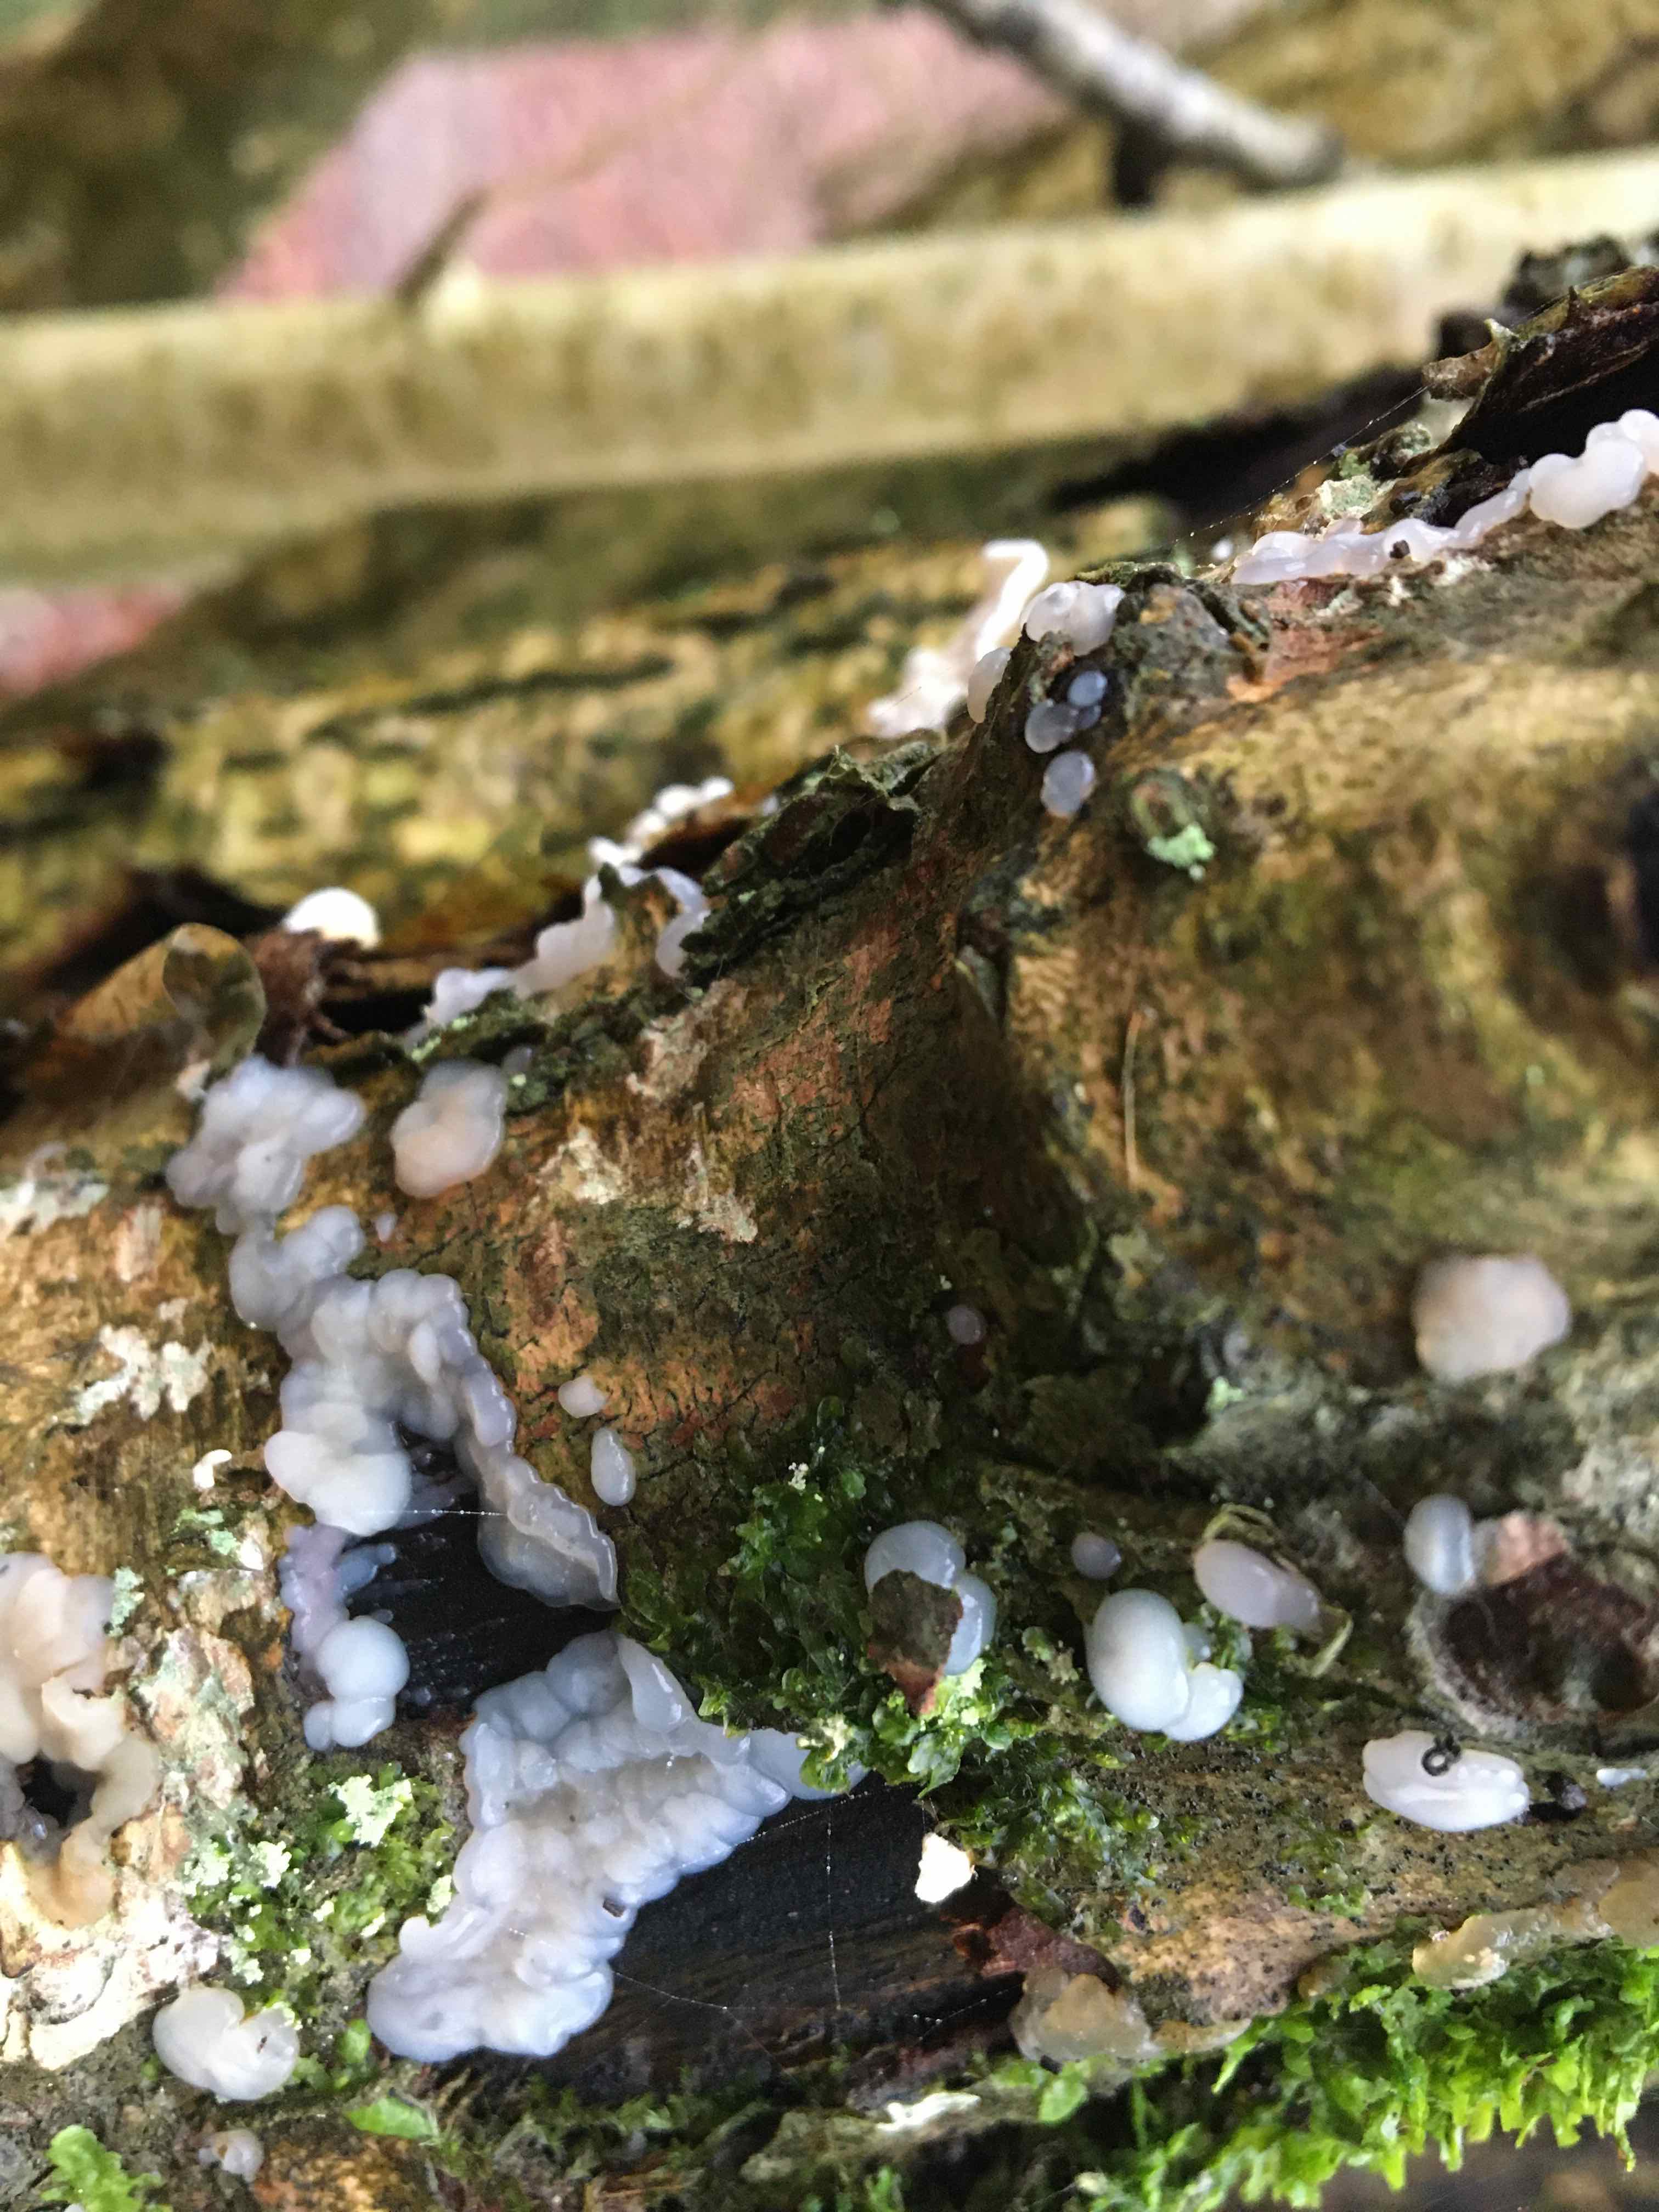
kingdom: Fungi
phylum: Basidiomycota
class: Agaricomycetes
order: Auriculariales
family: Auriculariaceae
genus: Exidia
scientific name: Exidia thuretiana
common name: hvidlig bævretop
